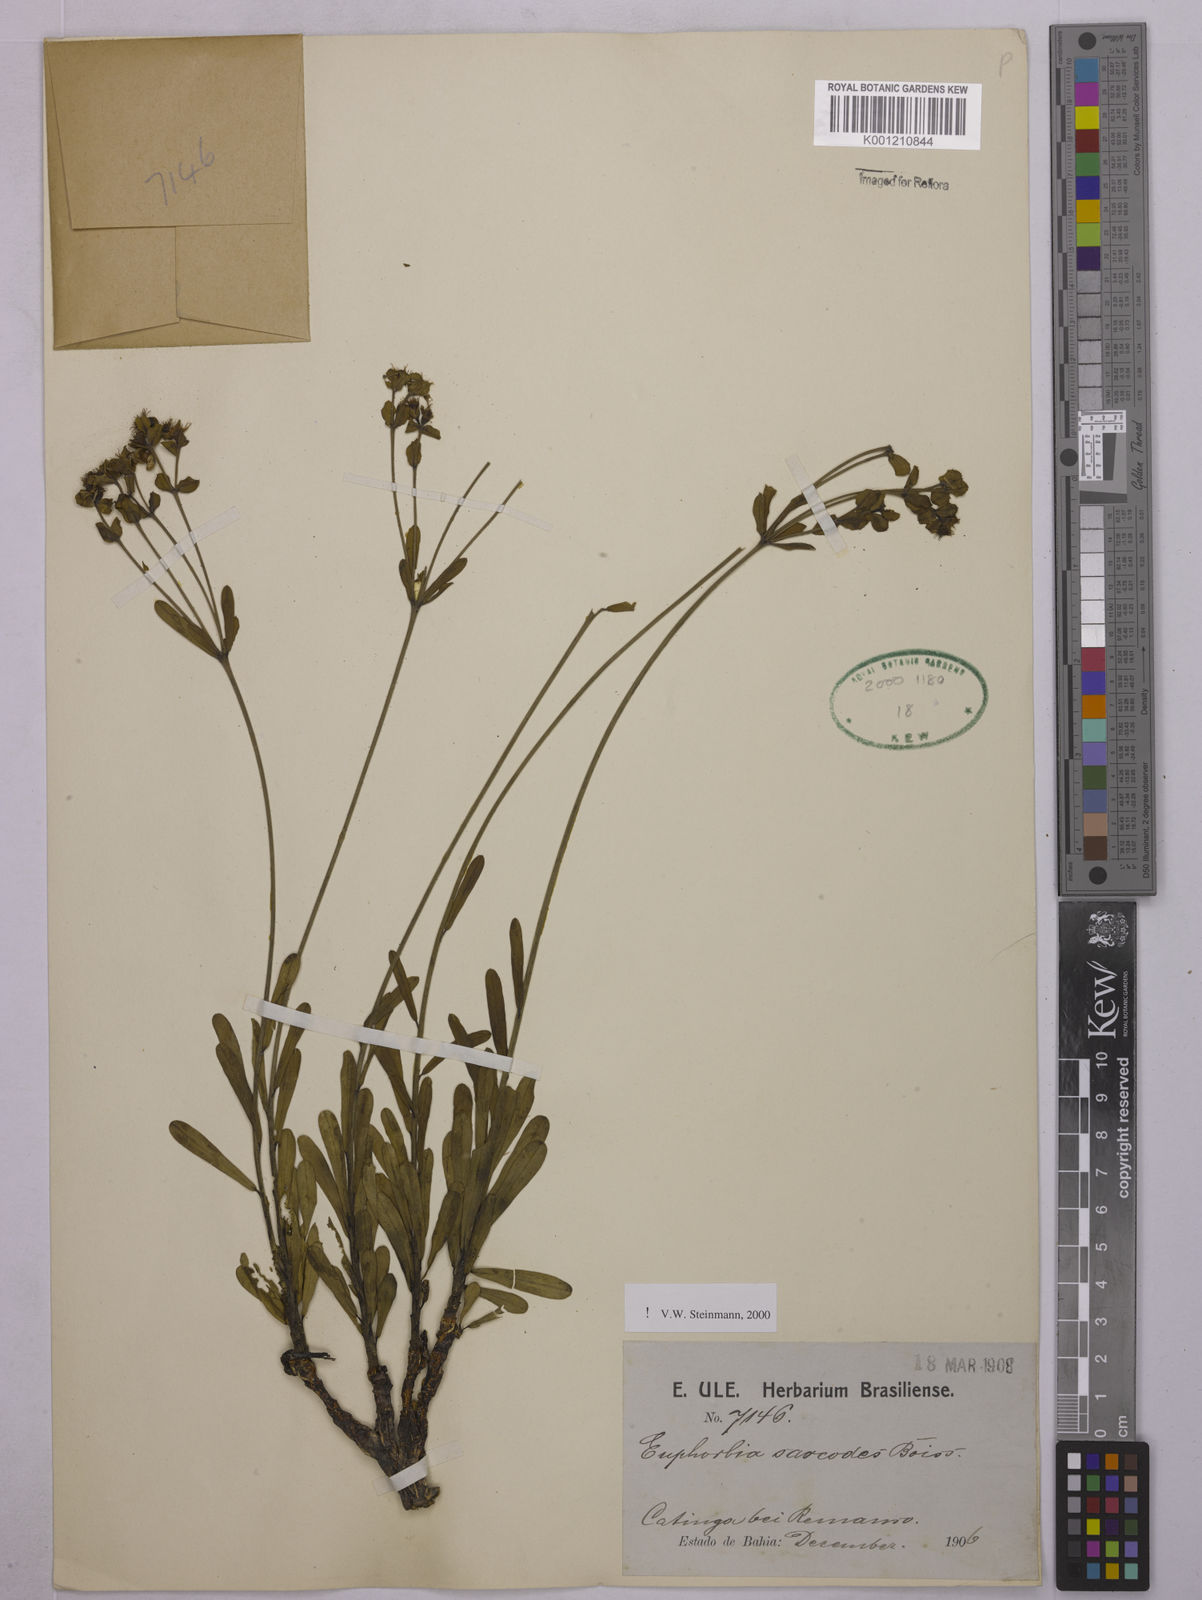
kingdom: Plantae
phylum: Tracheophyta
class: Magnoliopsida
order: Malpighiales
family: Euphorbiaceae
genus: Euphorbia
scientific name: Euphorbia sarcodes
